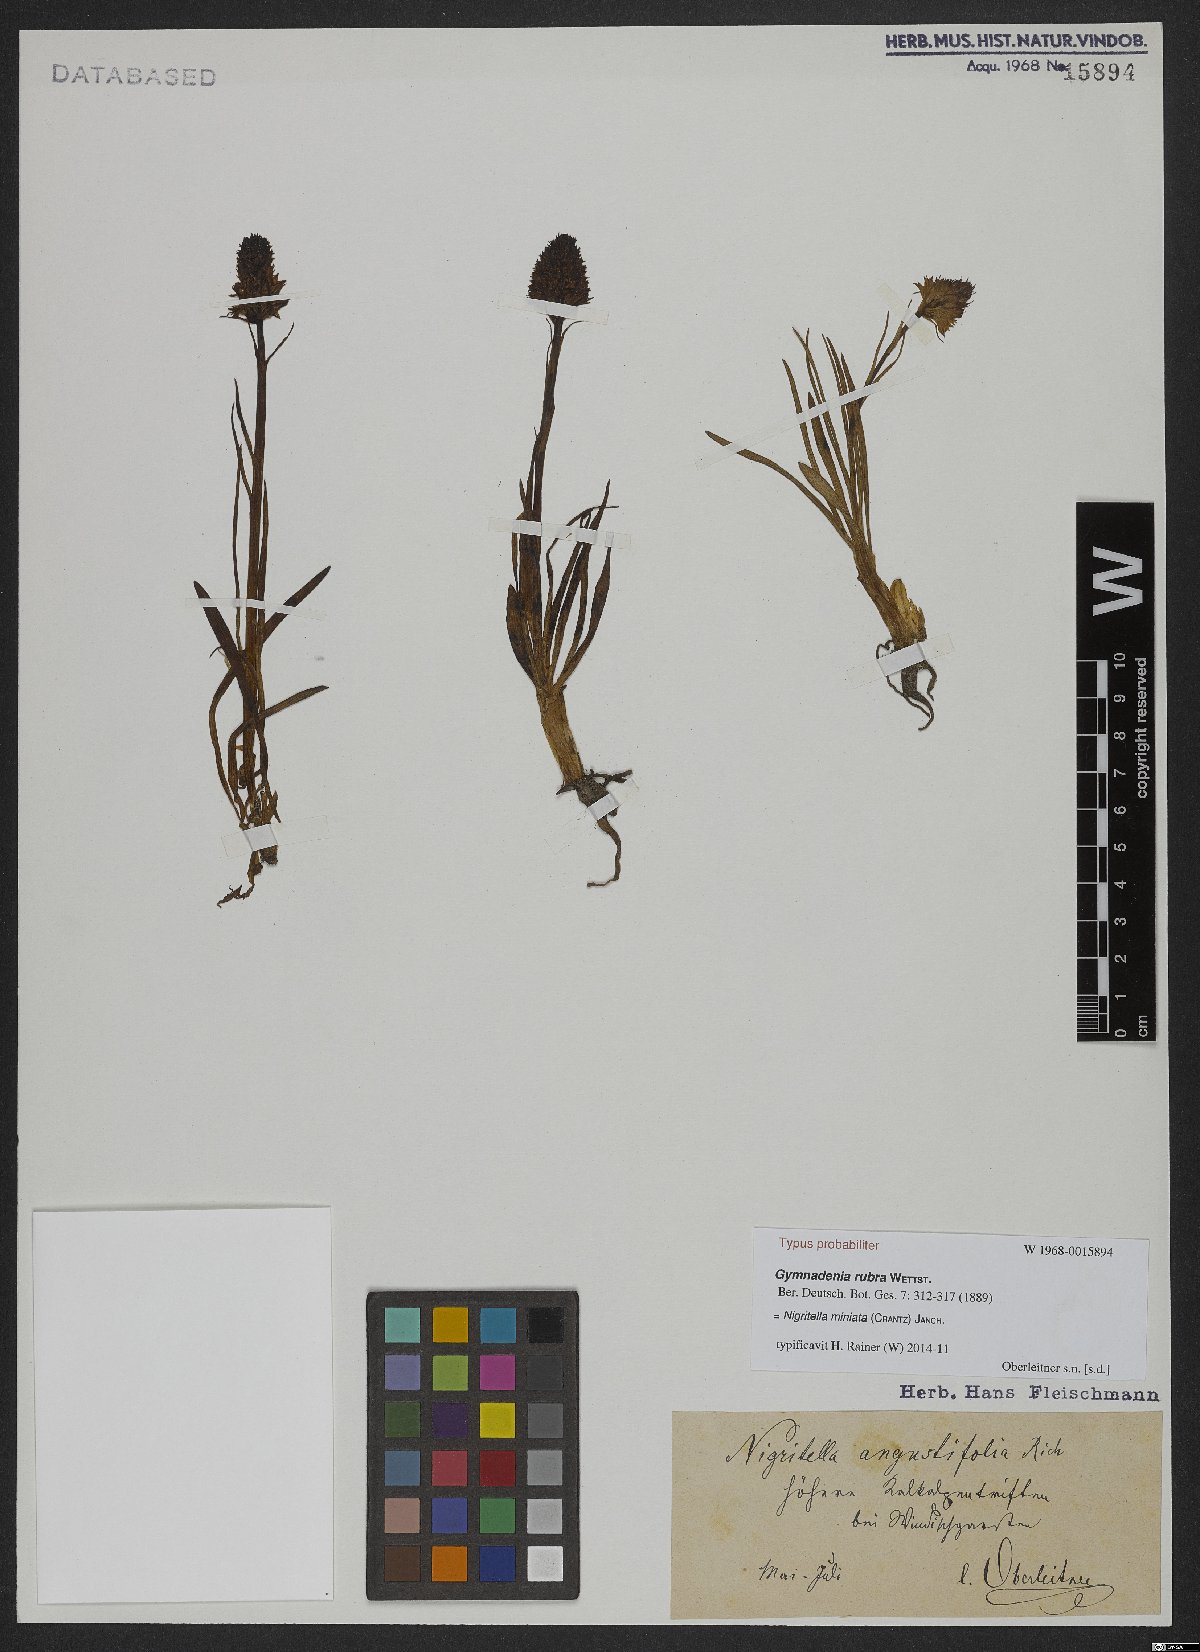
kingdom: Plantae
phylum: Tracheophyta
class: Liliopsida
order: Asparagales
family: Orchidaceae
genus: Gymnadenia
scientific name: Gymnadenia miniata
